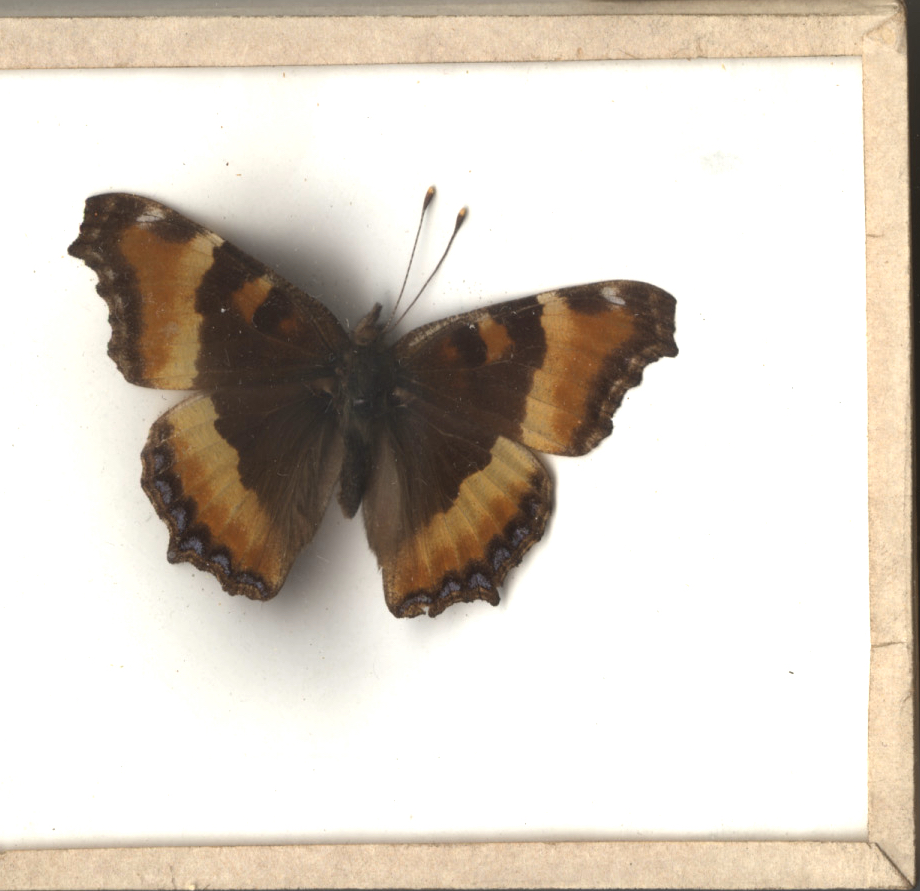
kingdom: Animalia
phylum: Arthropoda
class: Insecta
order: Lepidoptera
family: Nymphalidae
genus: Aglais
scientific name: Aglais milberti
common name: Milbert's Tortoiseshell
